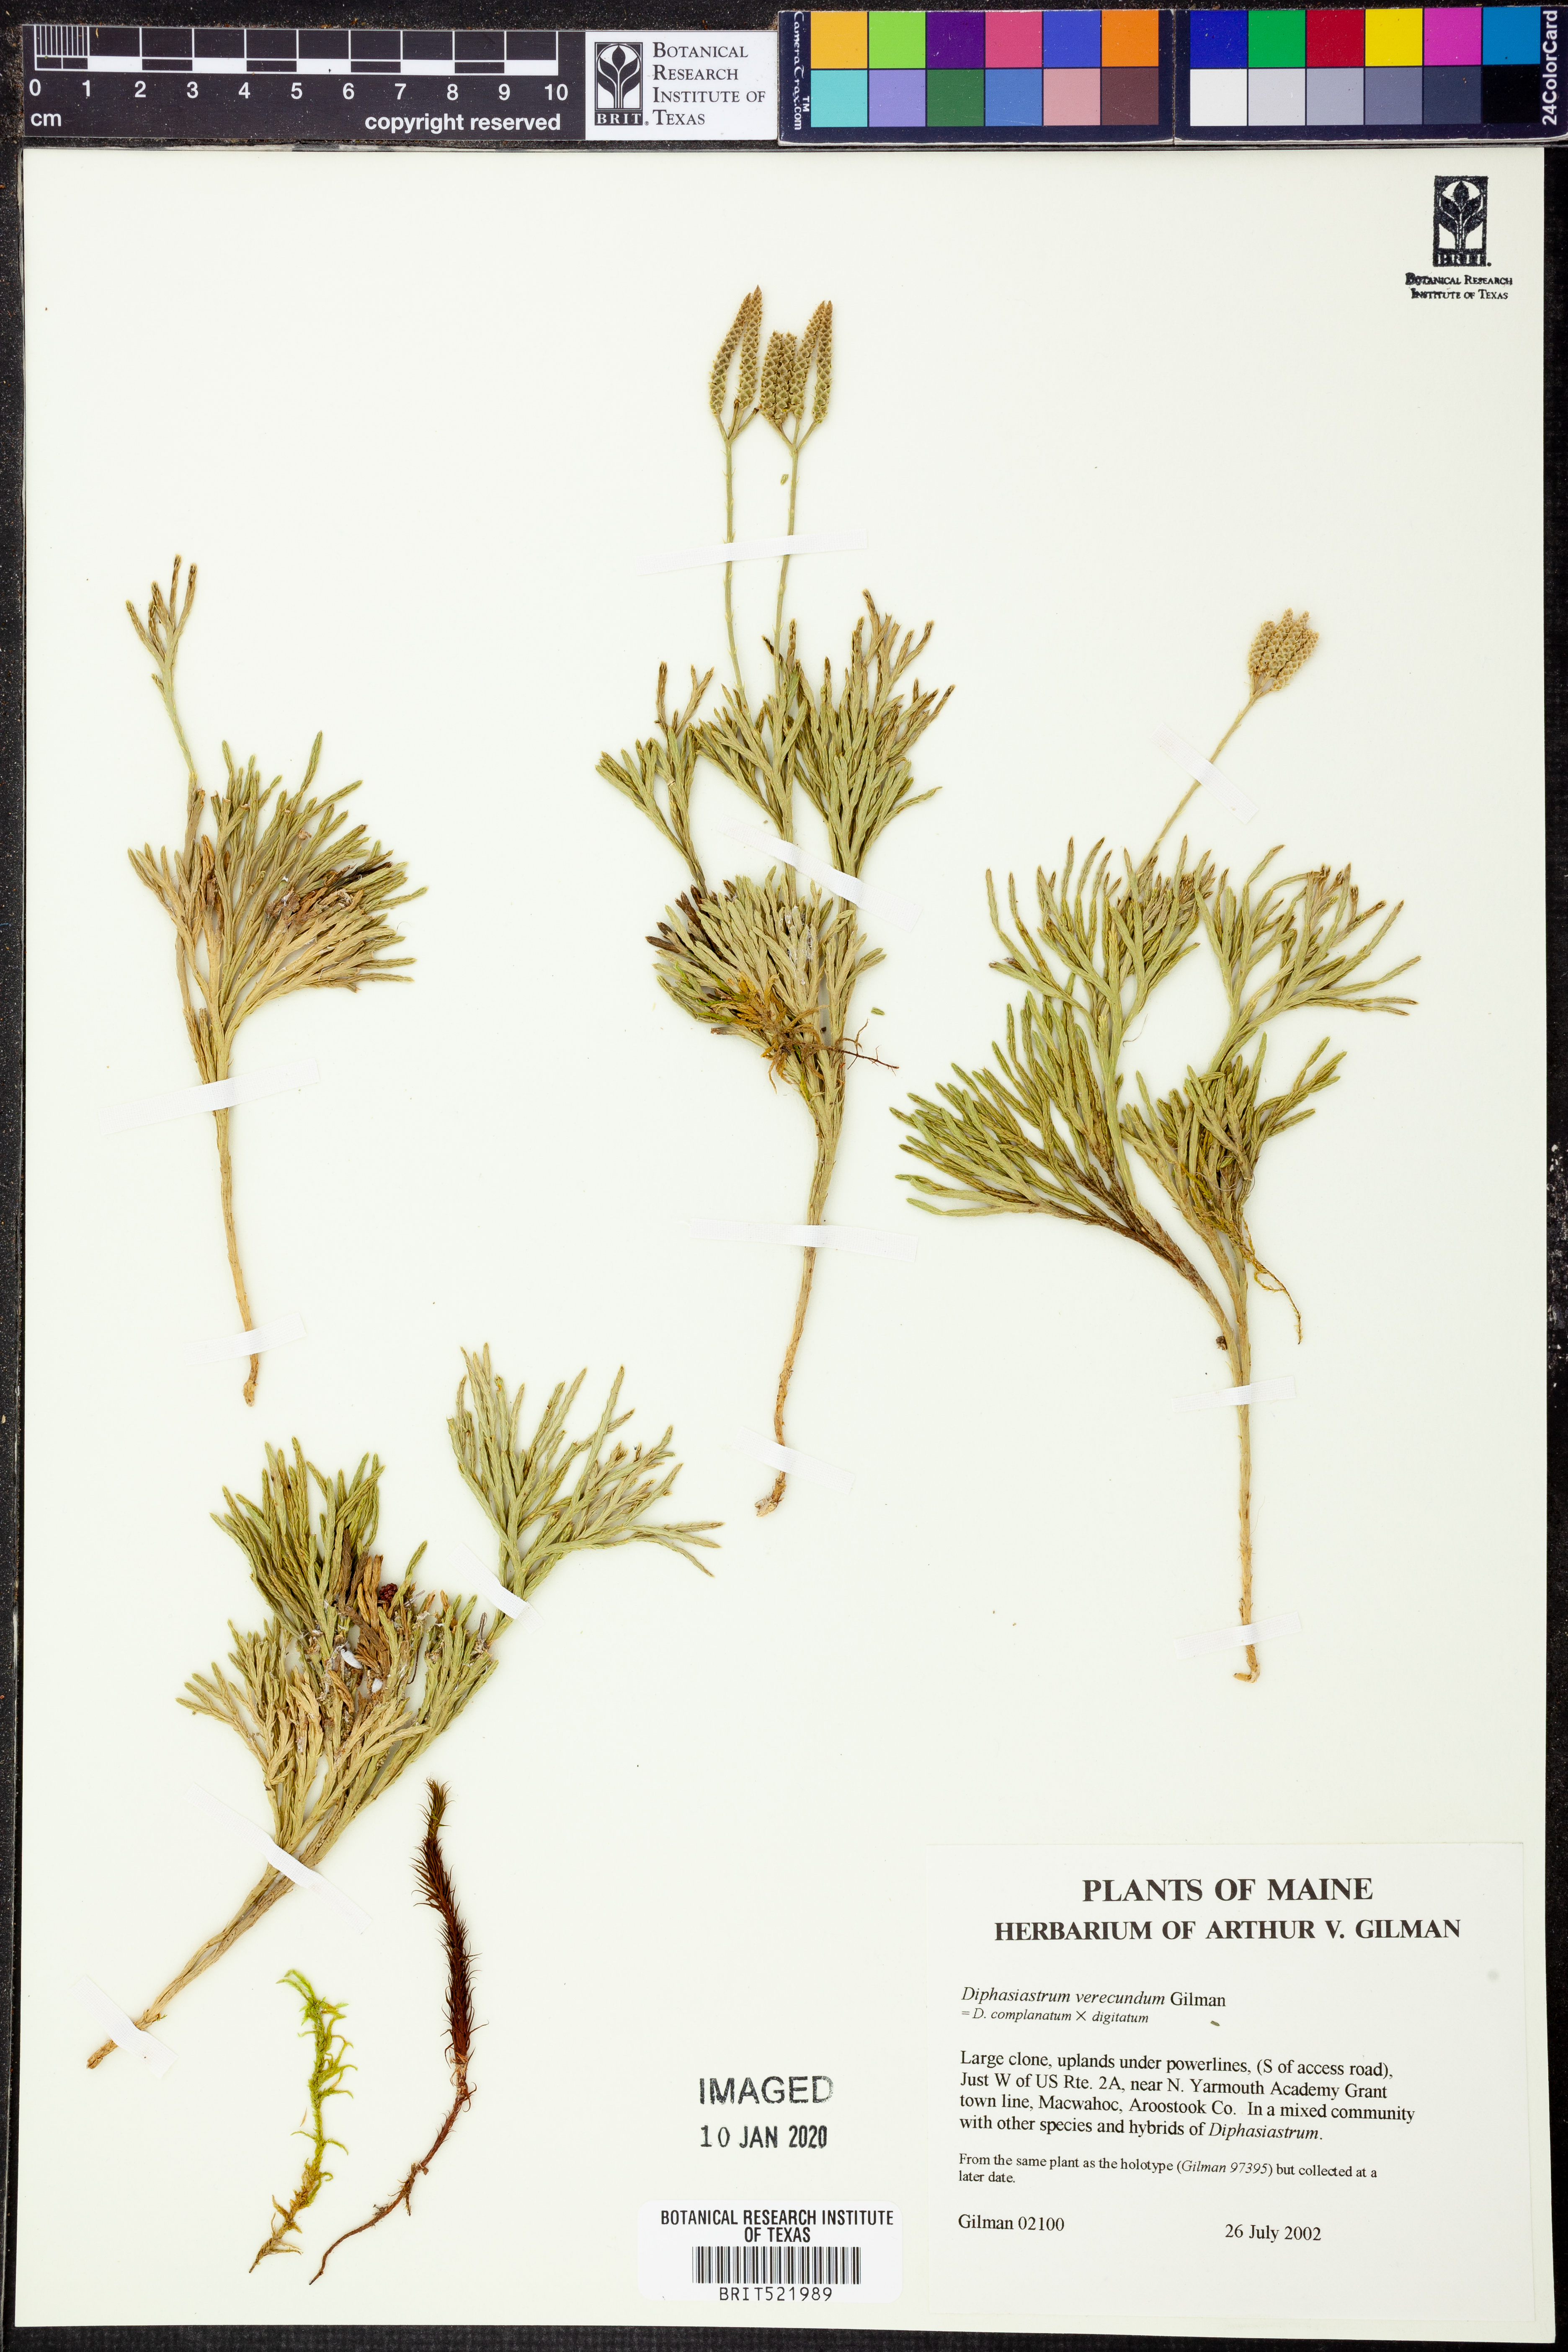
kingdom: Plantae
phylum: Tracheophyta
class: Lycopodiopsida
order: Lycopodiales
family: Lycopodiaceae
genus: Diphasiastrum
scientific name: Diphasiastrum verecundum
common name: Bashful ground-cedar
